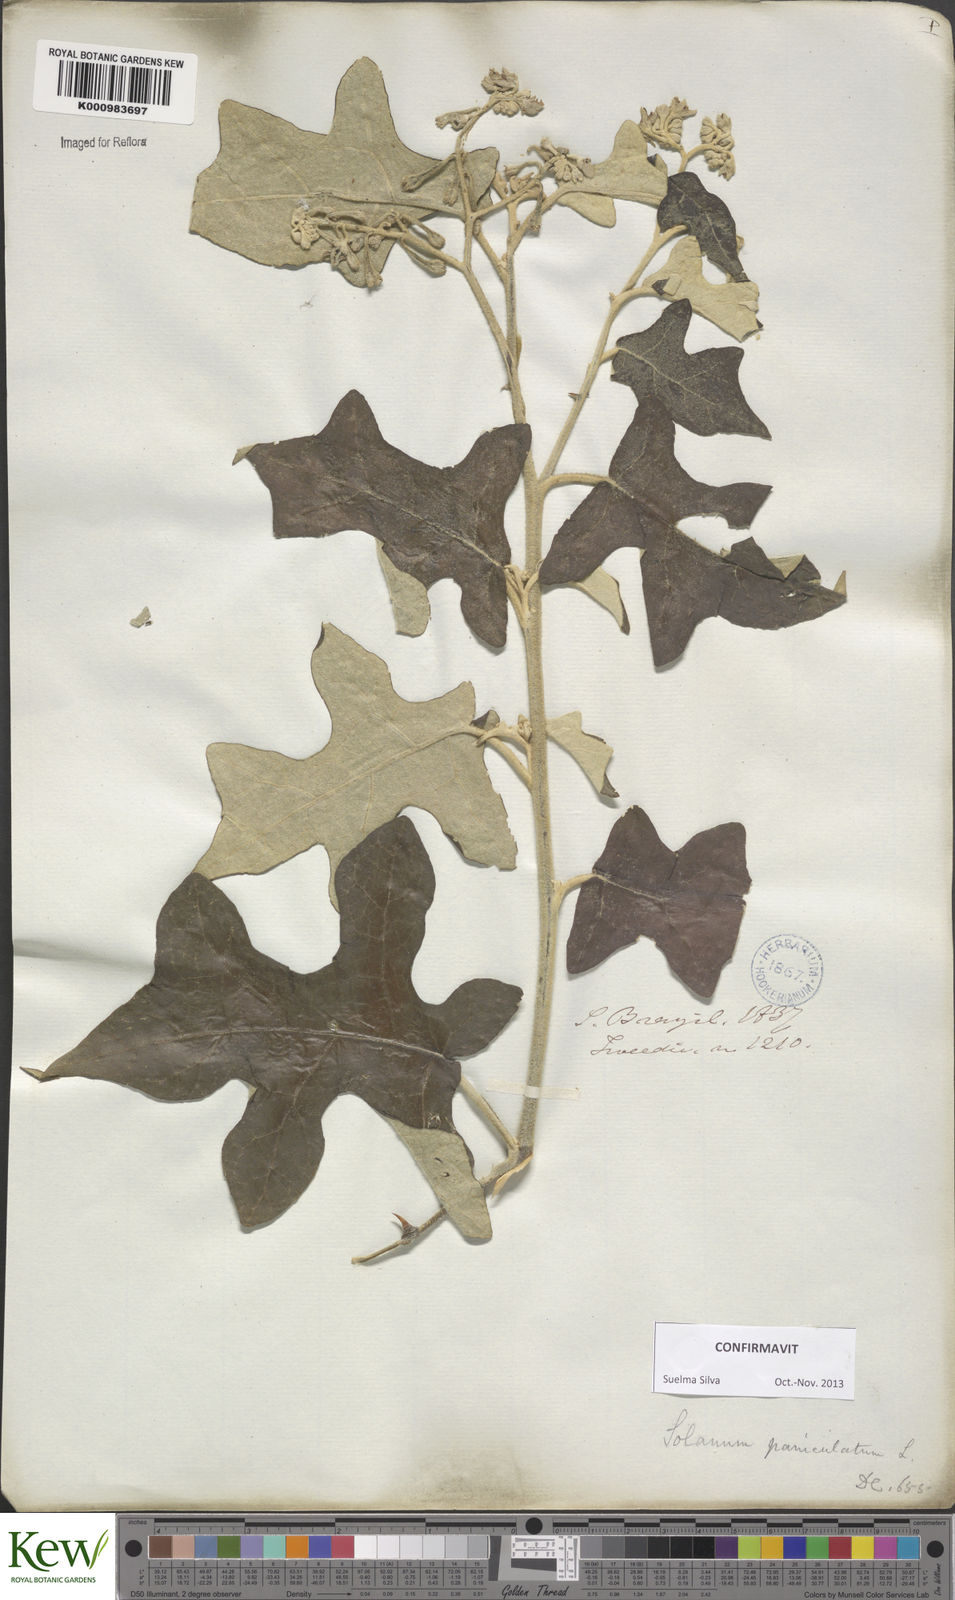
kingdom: Plantae
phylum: Tracheophyta
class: Magnoliopsida
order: Solanales
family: Solanaceae
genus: Solanum
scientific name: Solanum paniculatum
